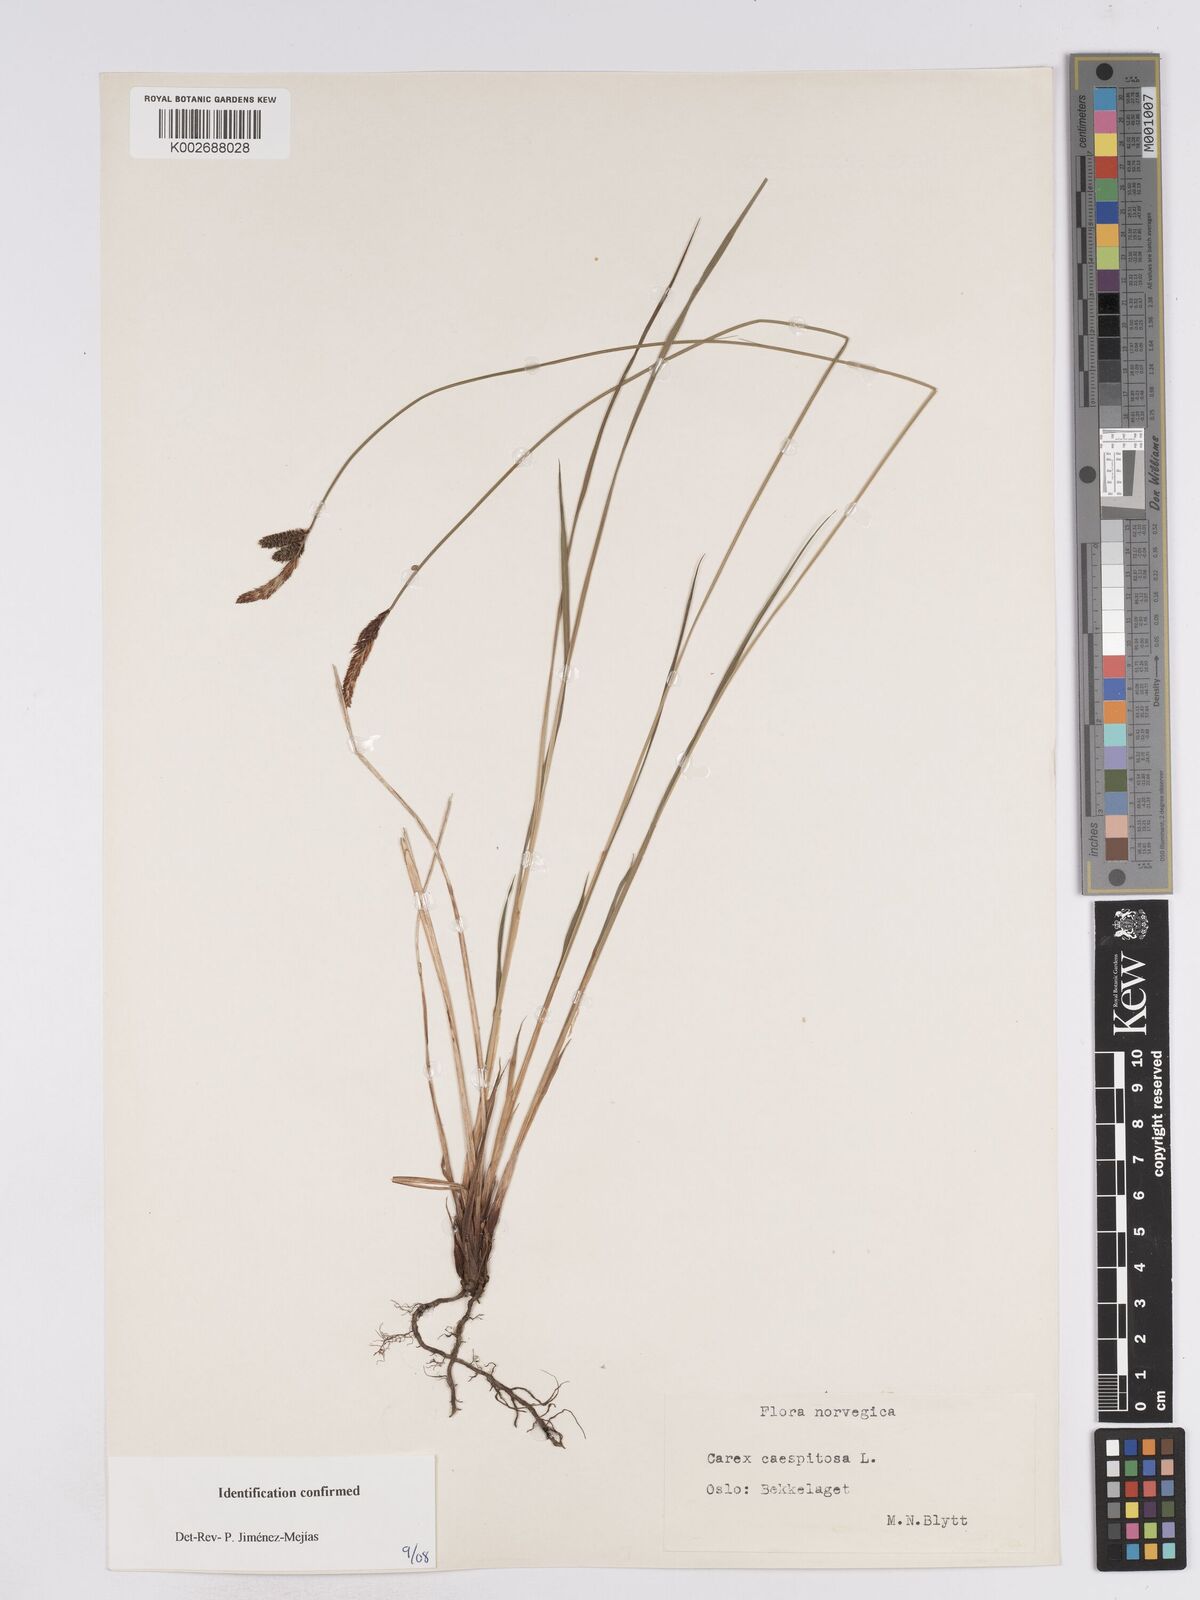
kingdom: Plantae
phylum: Tracheophyta
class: Liliopsida
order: Poales
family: Cyperaceae
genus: Carex
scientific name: Carex nigra
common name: Common sedge
